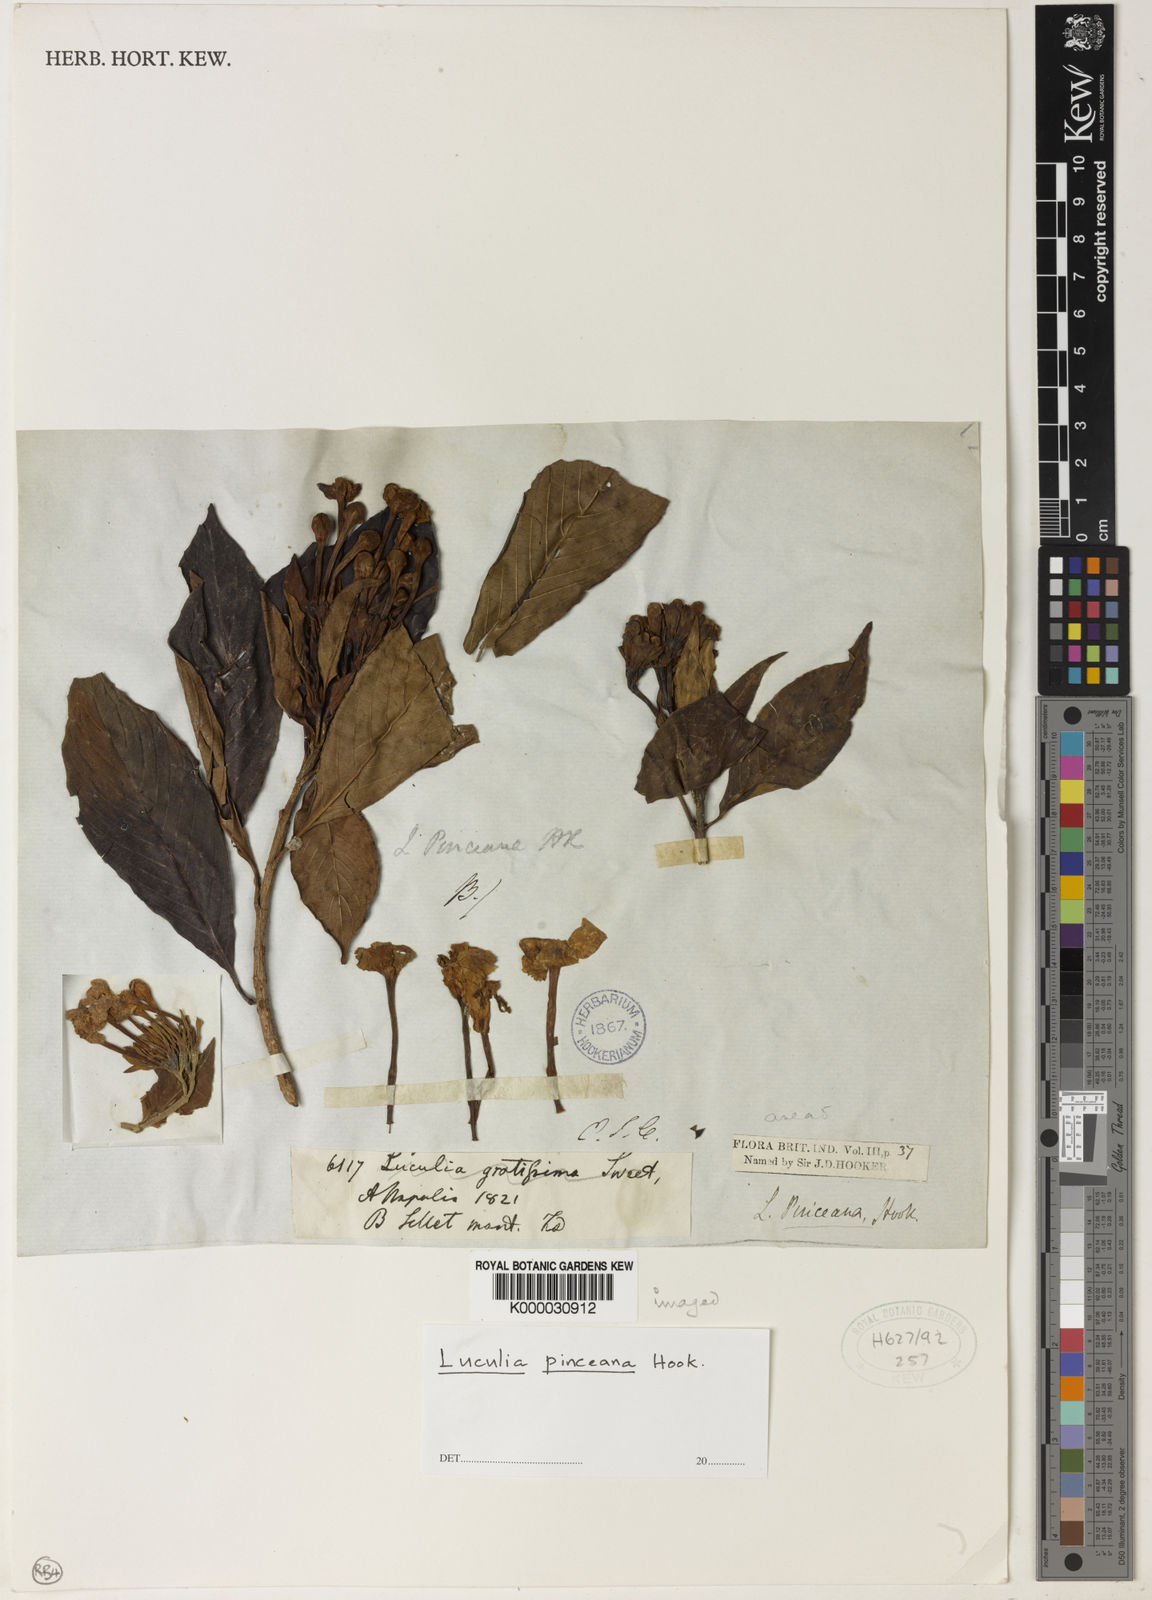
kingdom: Plantae
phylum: Tracheophyta
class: Magnoliopsida
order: Gentianales
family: Rubiaceae
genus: Luculia
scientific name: Luculia pinceana
